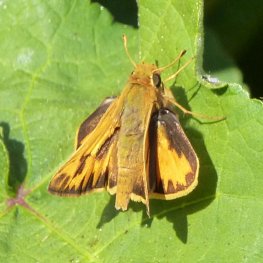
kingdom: Animalia
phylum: Arthropoda
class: Insecta
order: Lepidoptera
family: Hesperiidae
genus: Hylephila
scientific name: Hylephila phyleus
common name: Fiery Skipper
